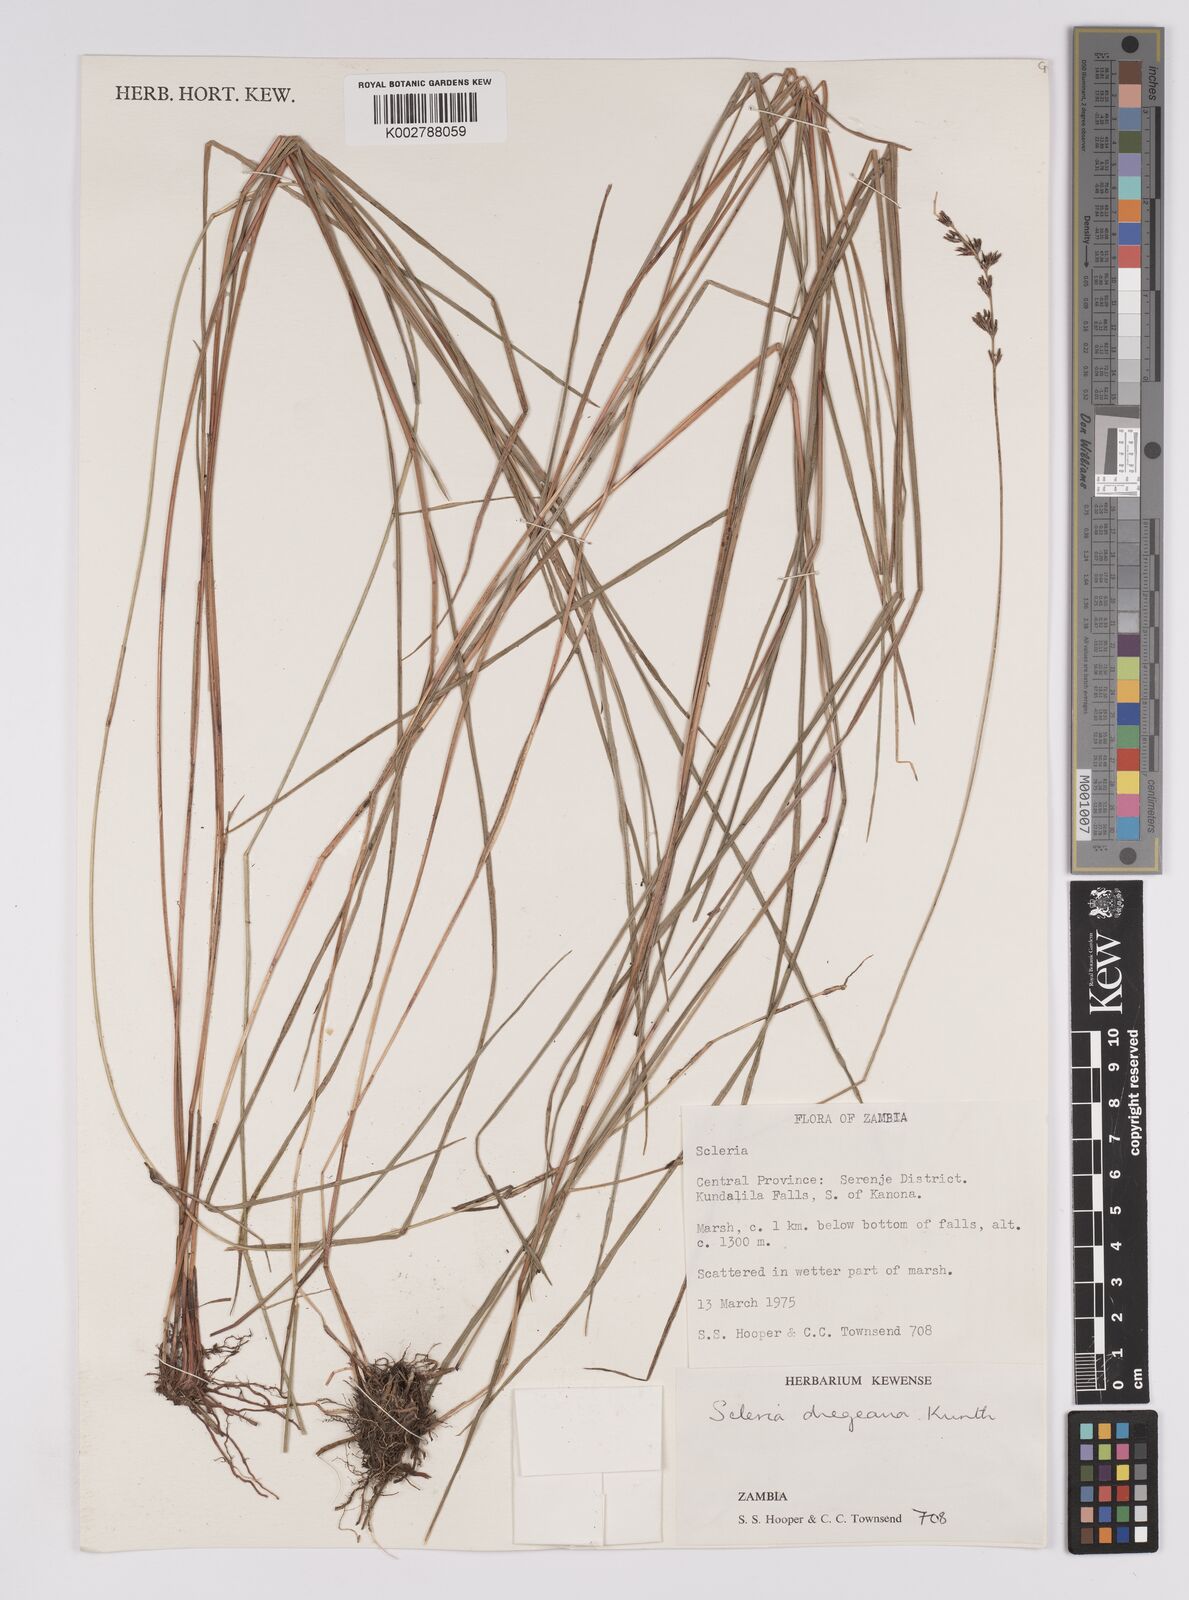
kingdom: Plantae
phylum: Tracheophyta
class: Liliopsida
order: Poales
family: Cyperaceae
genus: Scleria
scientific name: Scleria dregeana
